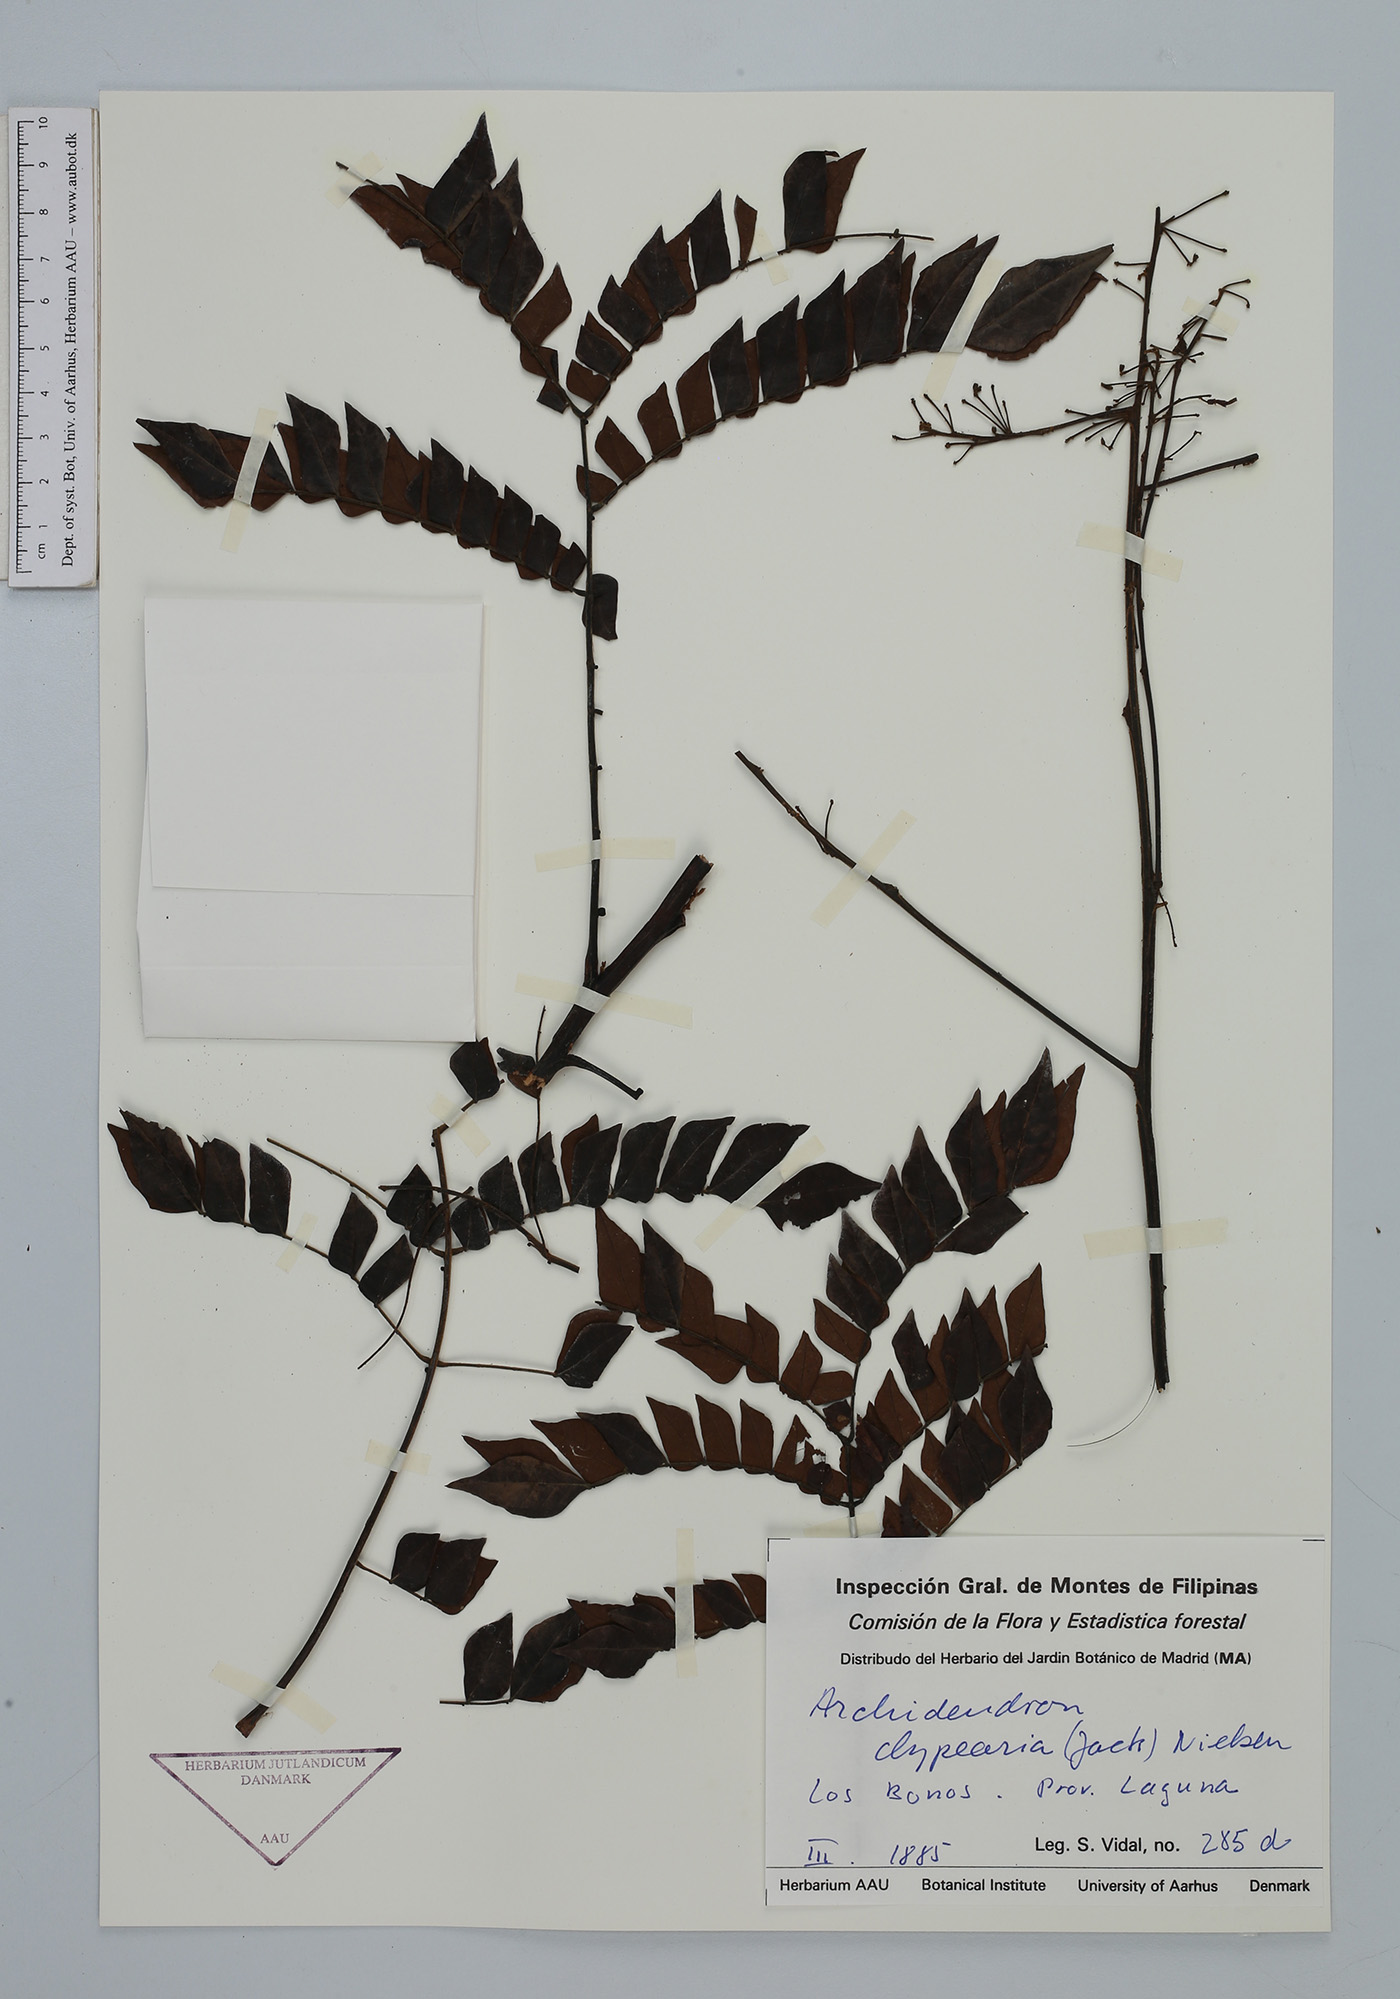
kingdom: Plantae
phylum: Tracheophyta
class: Magnoliopsida
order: Fabales
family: Fabaceae
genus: Archidendron
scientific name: Archidendron clypearia
